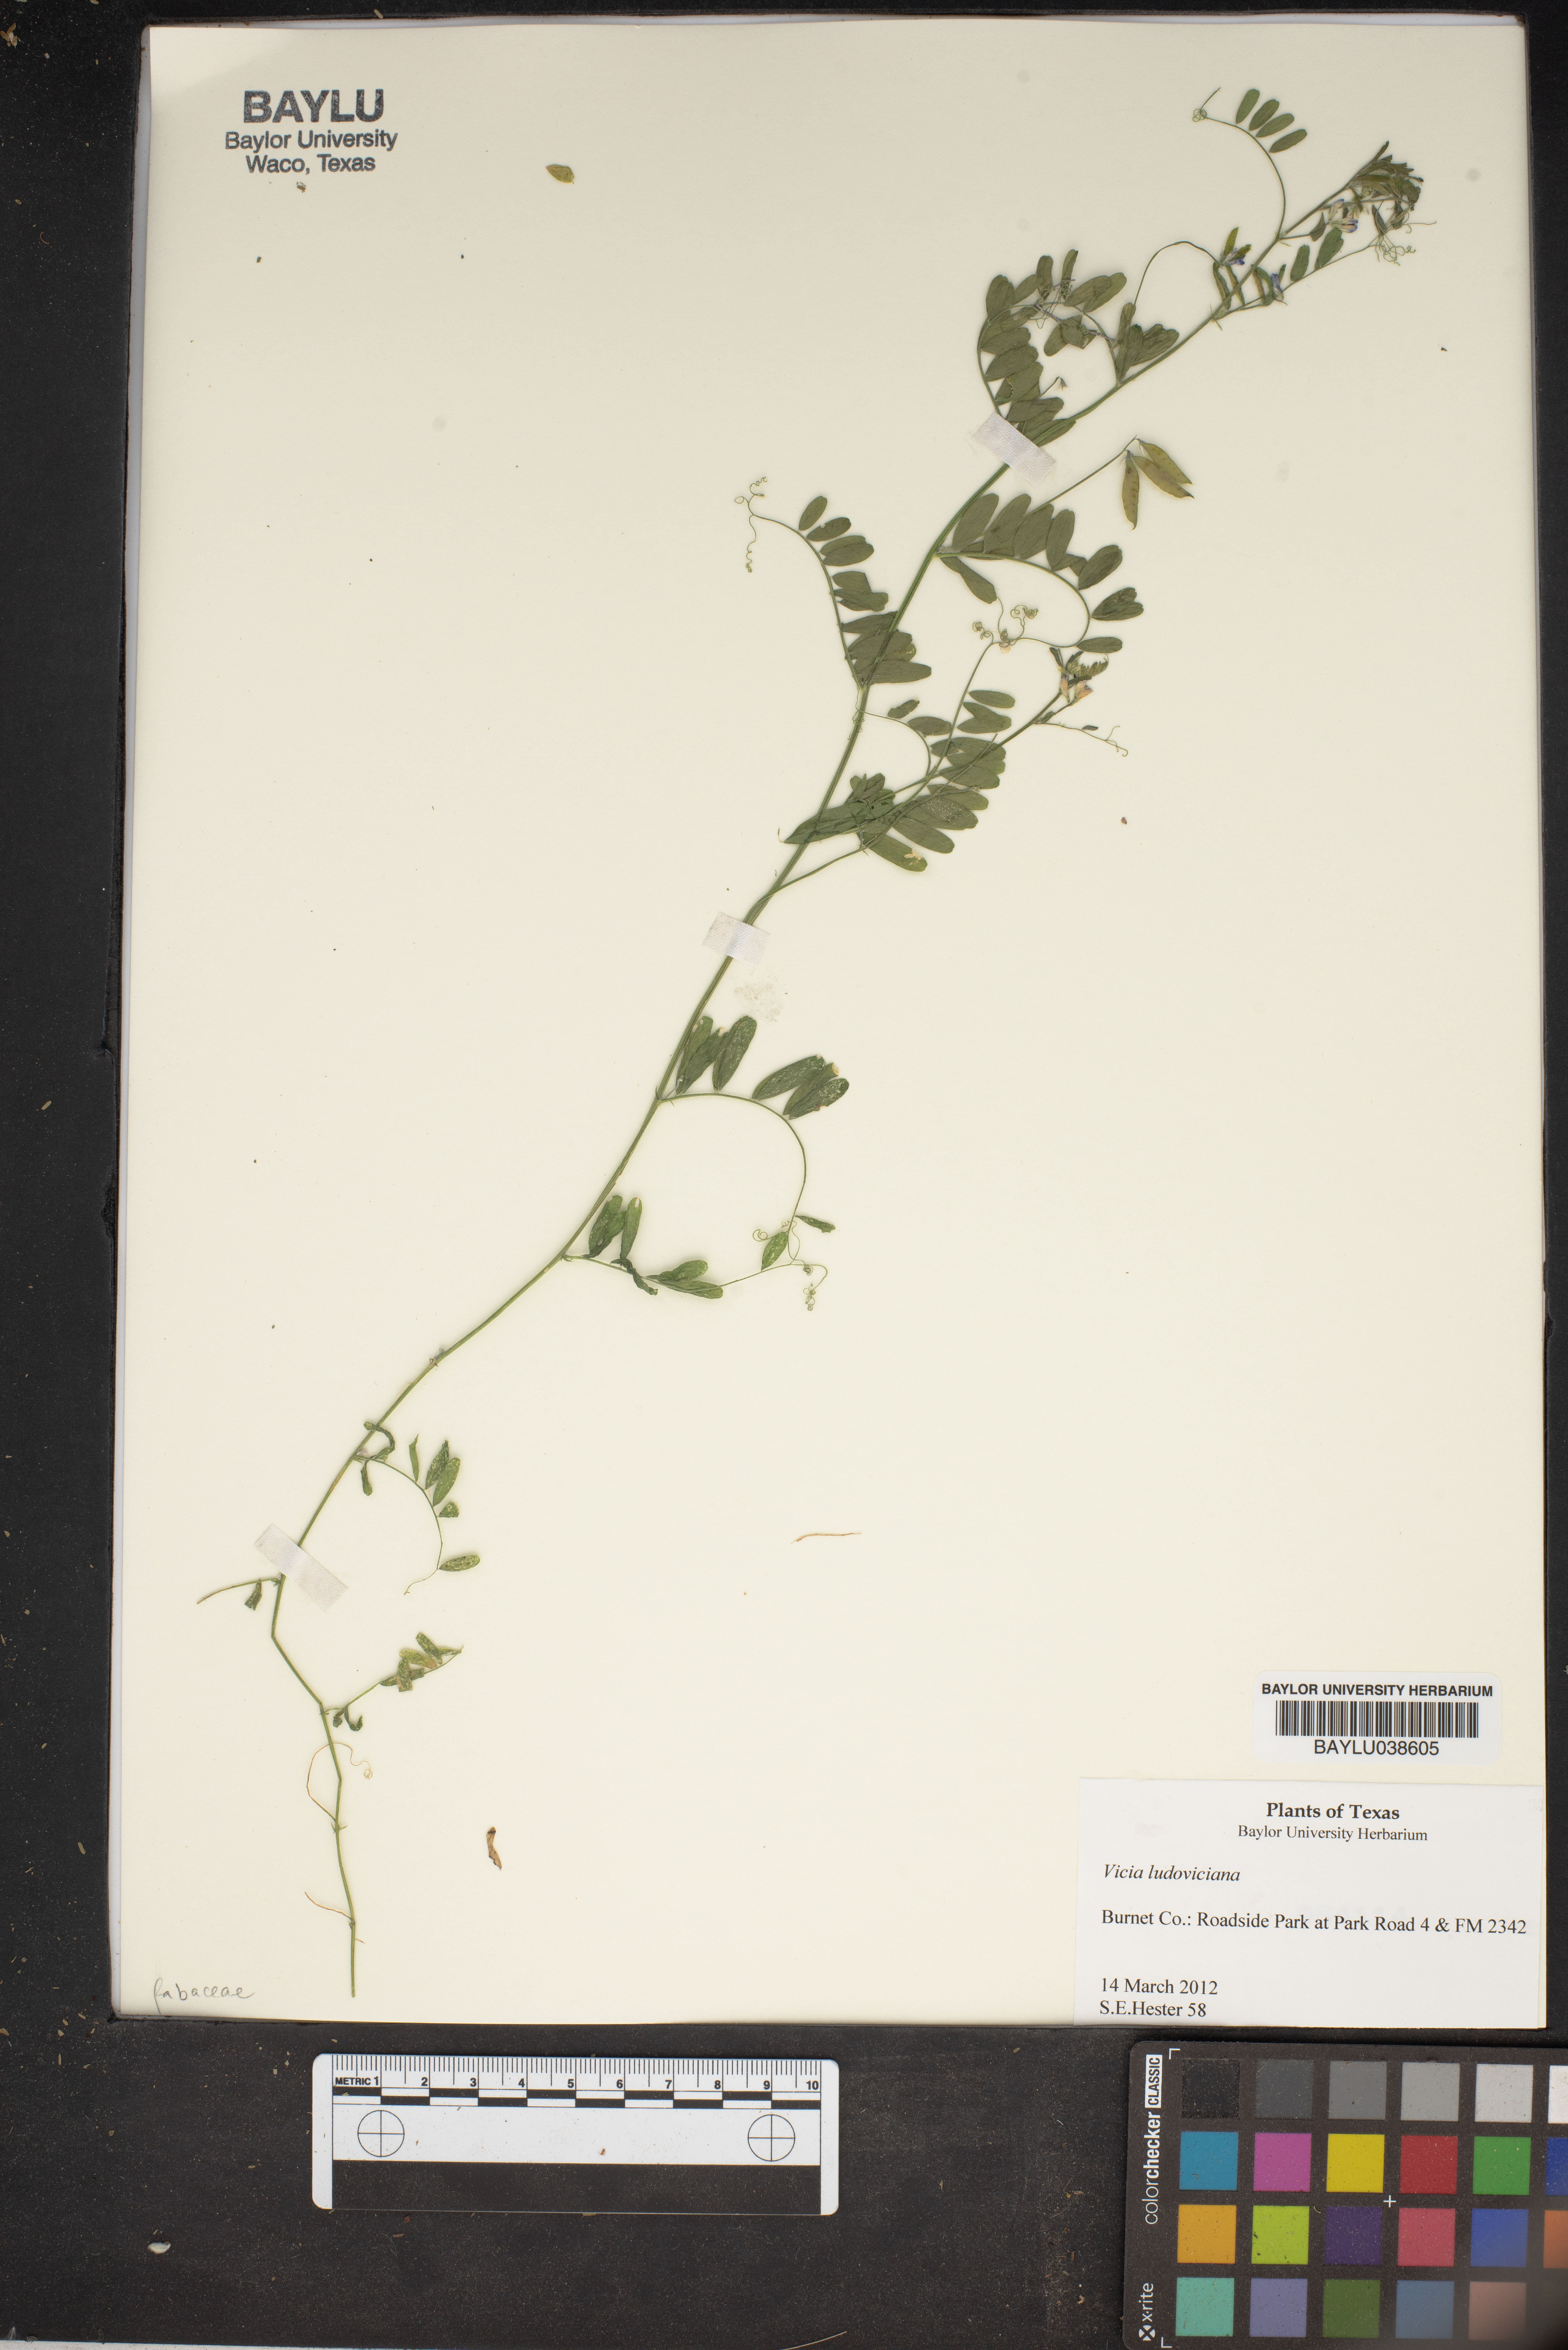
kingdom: Plantae
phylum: Tracheophyta
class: Magnoliopsida
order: Fabales
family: Fabaceae
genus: Vicia
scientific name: Vicia ludoviciana
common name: Louisiana vetch
